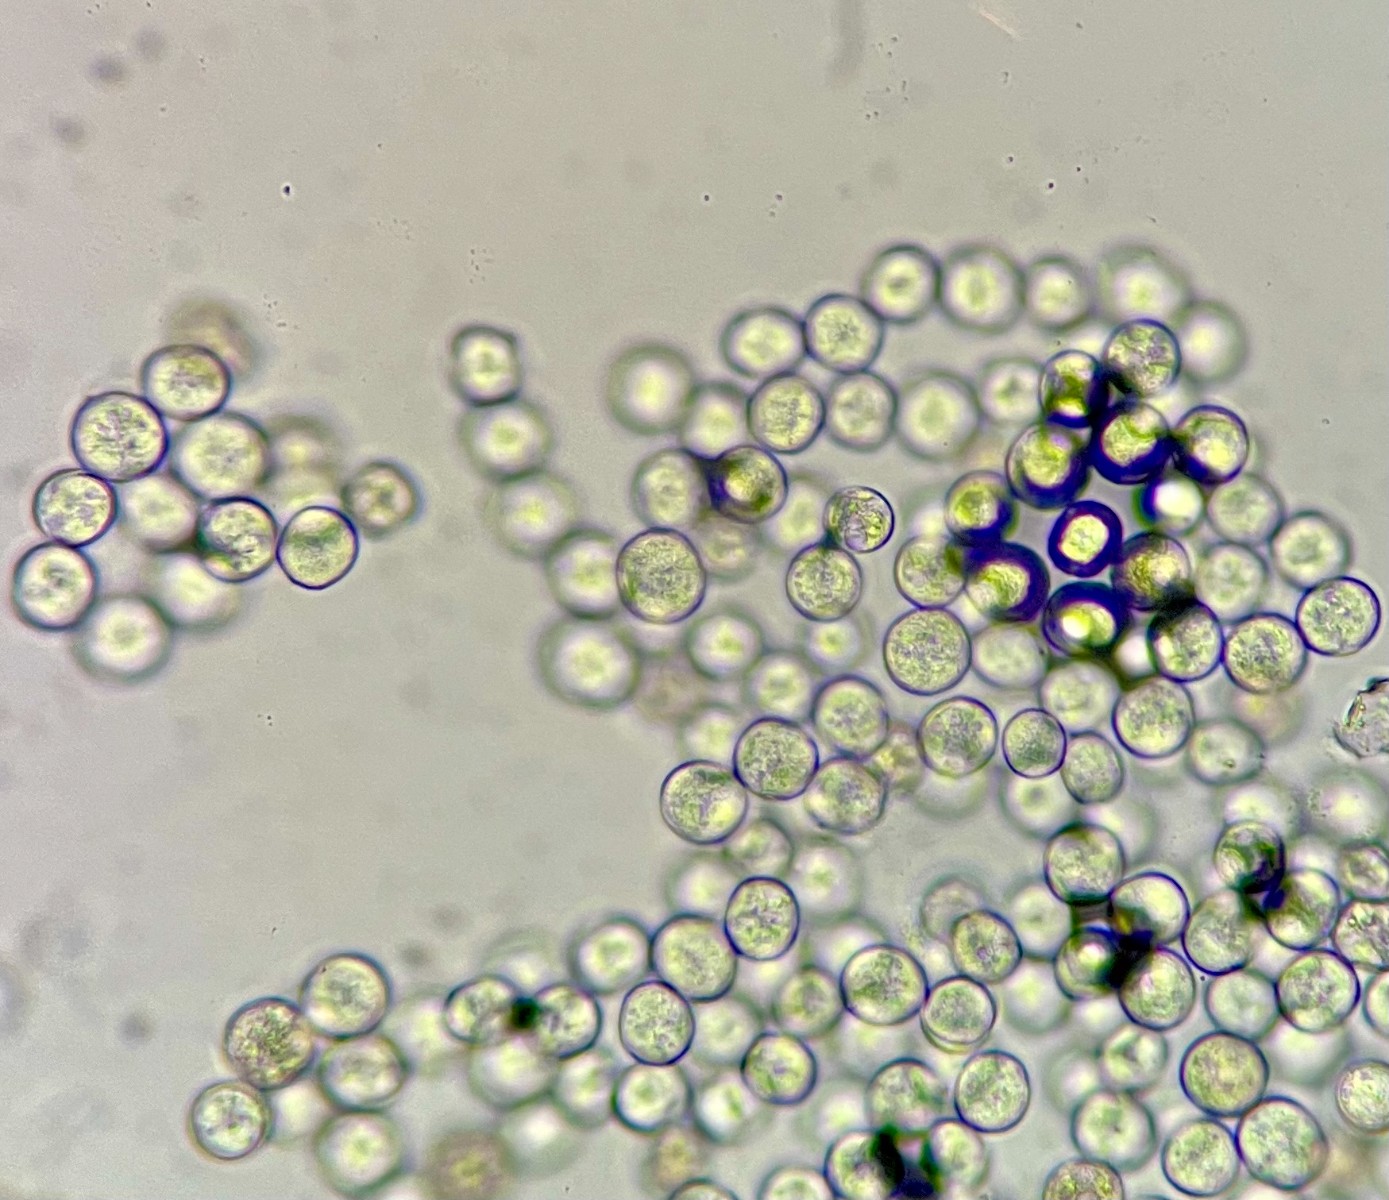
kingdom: Chromista
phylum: Oomycota
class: Peronosporea
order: Albuginales
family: Albuginaceae
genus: Pustula
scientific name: Pustula tragopogonis
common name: Sunflower white rust
